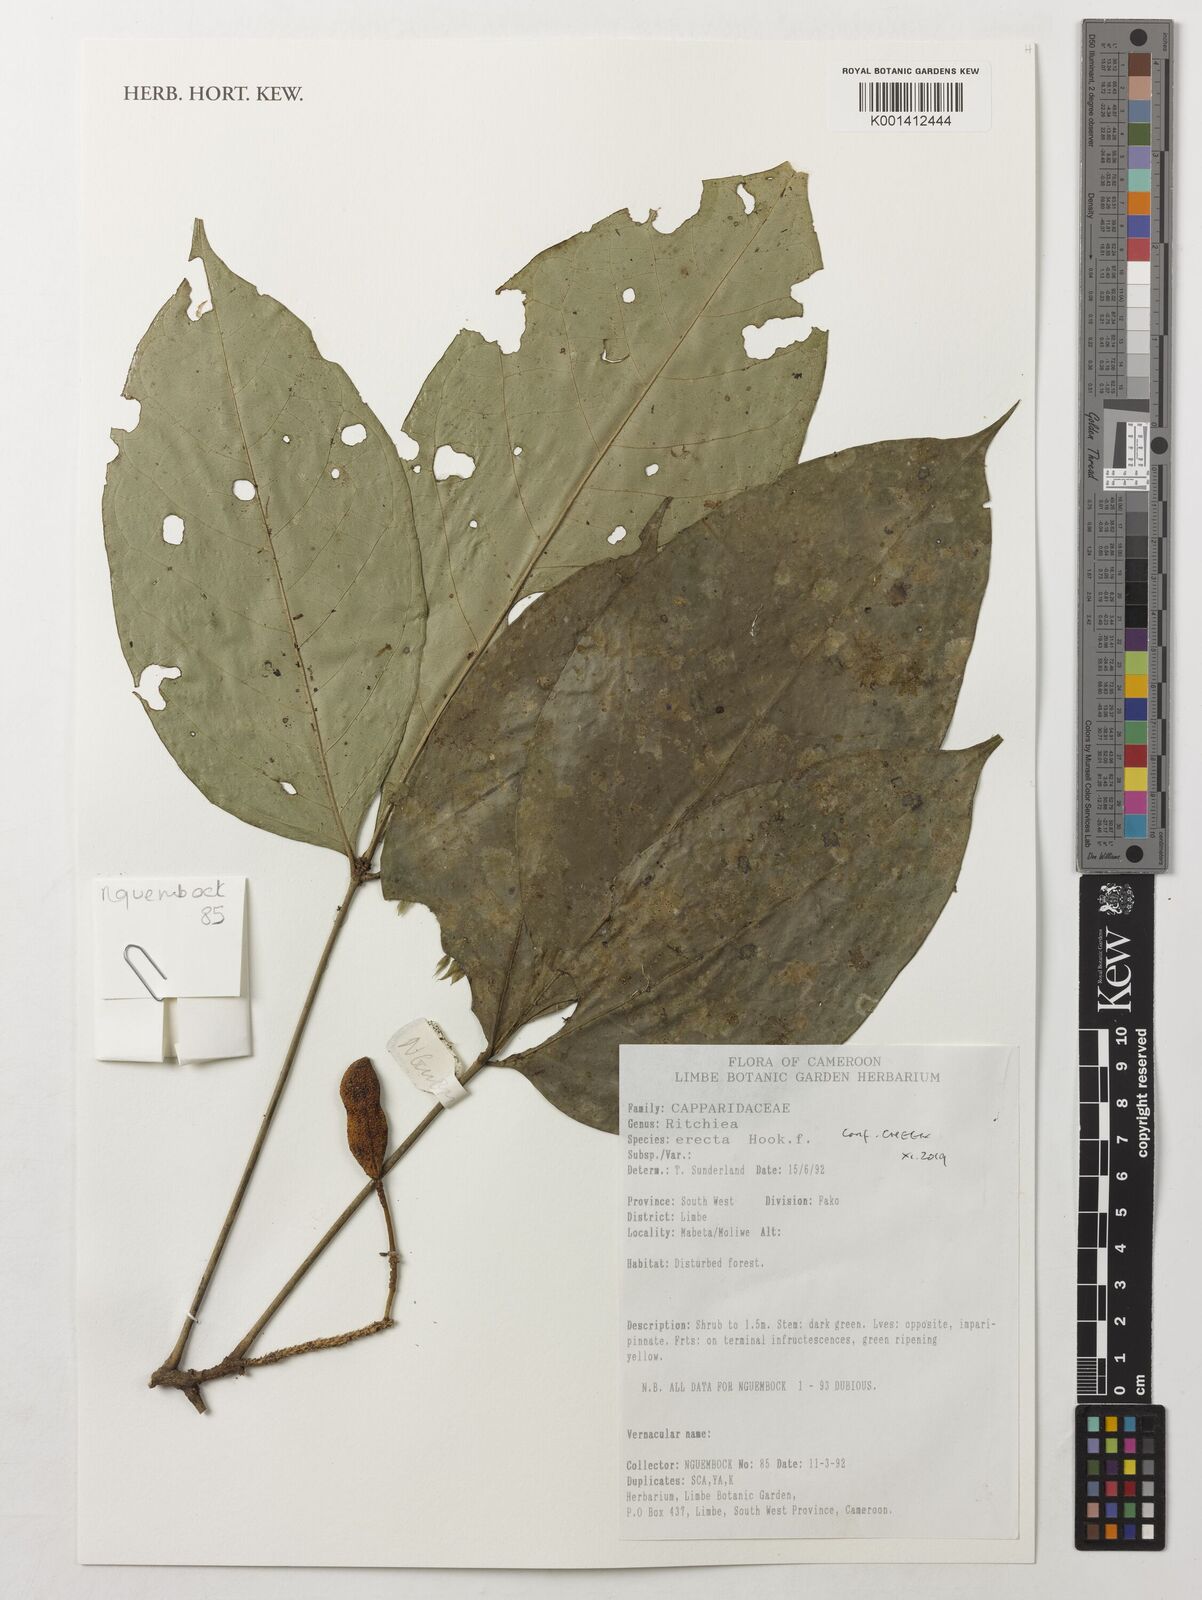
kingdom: Plantae
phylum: Tracheophyta
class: Magnoliopsida
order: Brassicales
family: Capparaceae
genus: Ritchiea
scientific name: Ritchiea erecta
